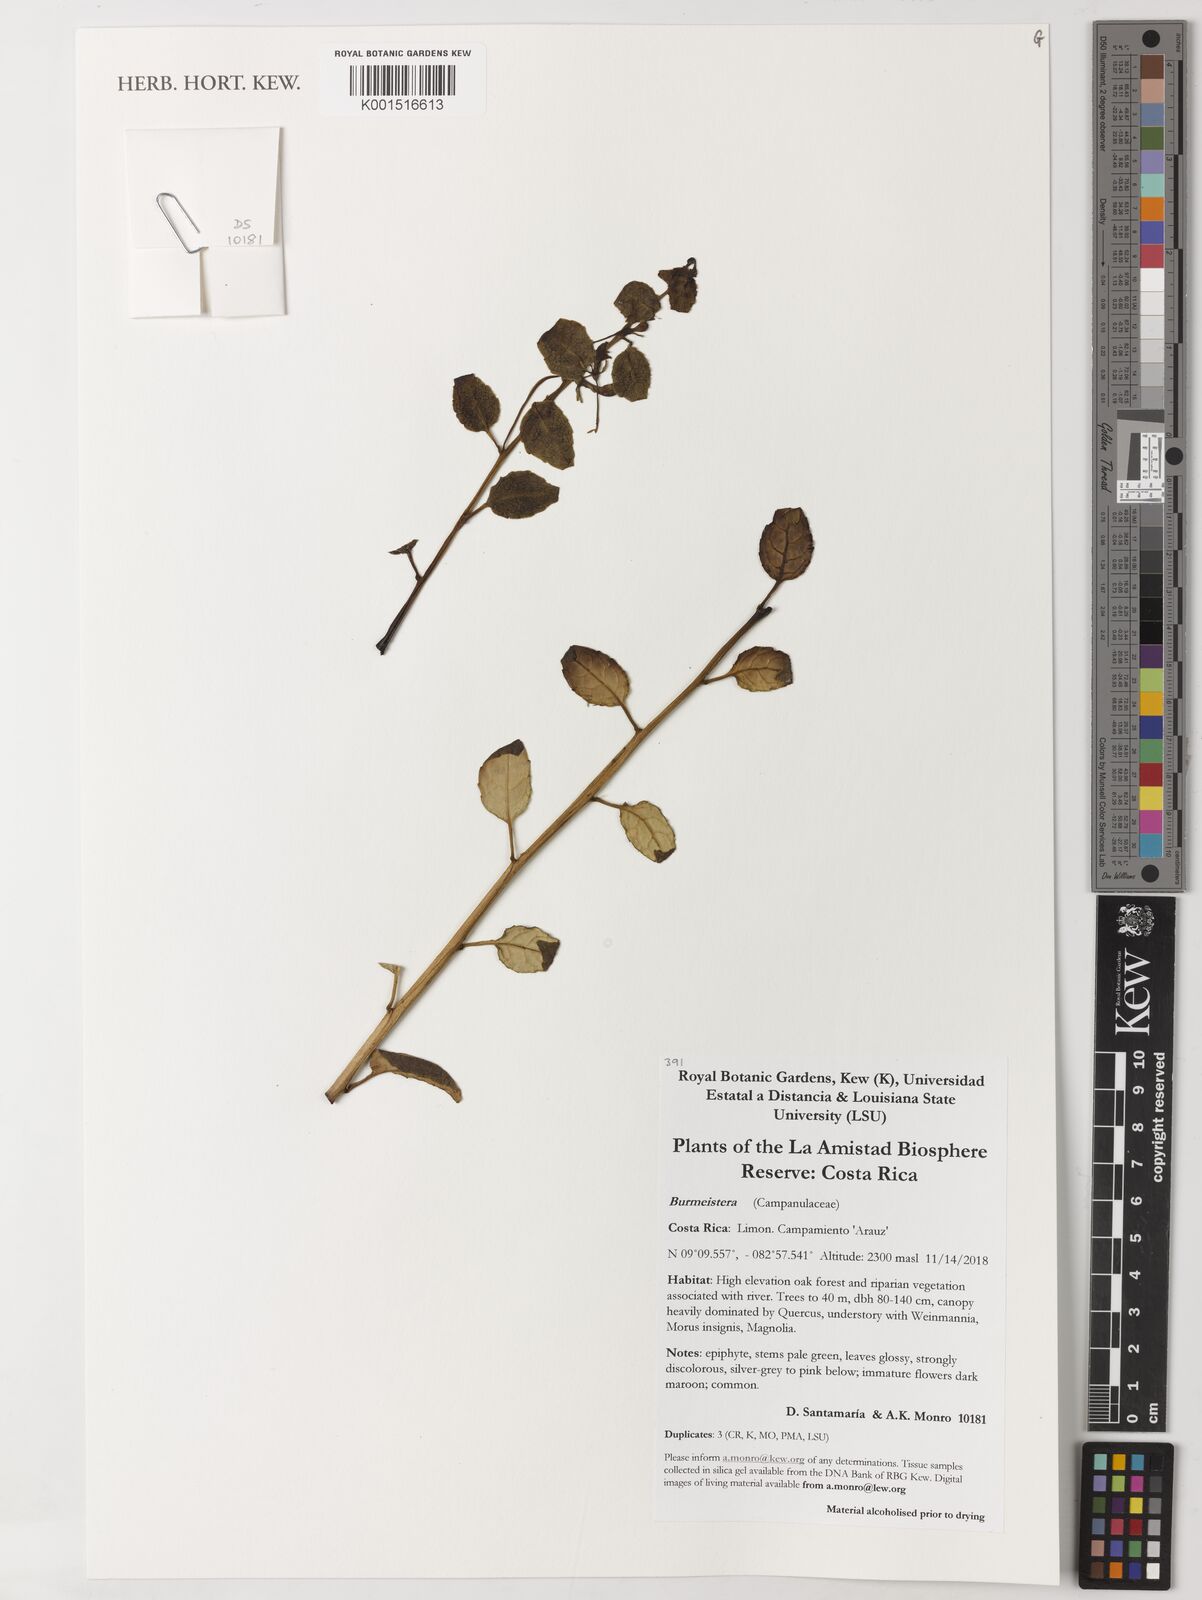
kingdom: Plantae
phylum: Tracheophyta
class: Magnoliopsida
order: Asterales
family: Campanulaceae
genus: Burmeistera
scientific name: Burmeistera
